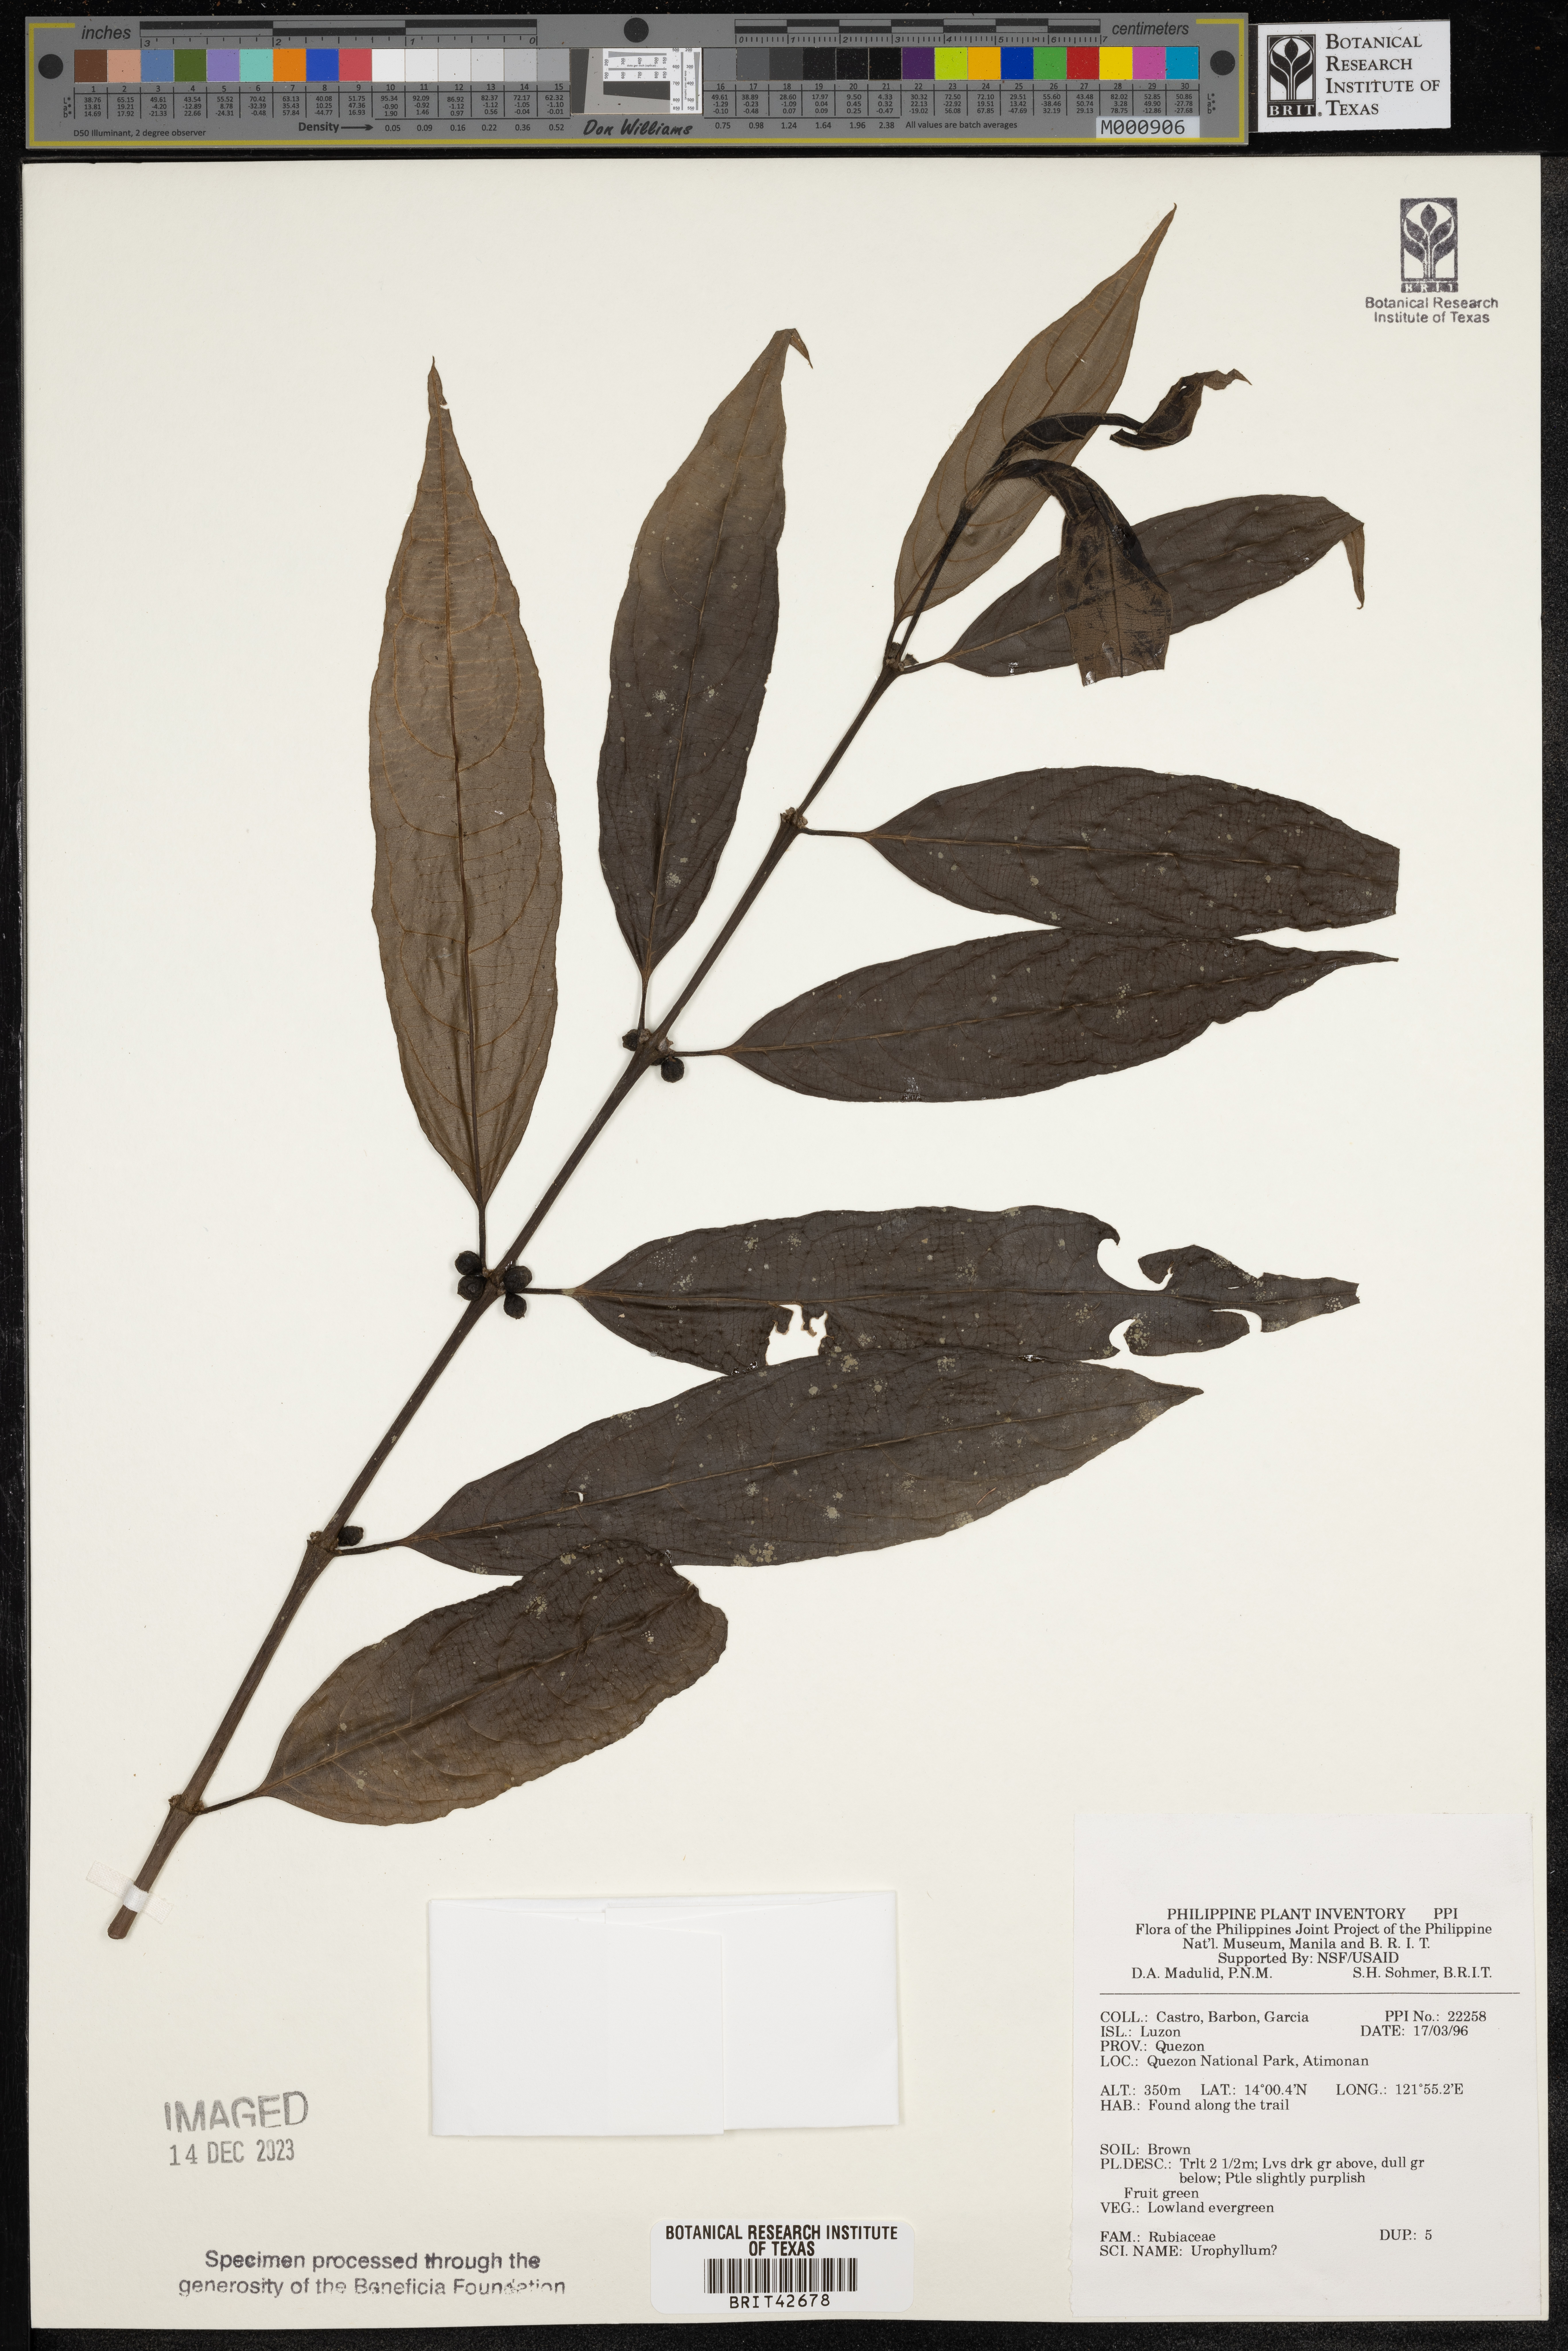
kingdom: Plantae
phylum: Tracheophyta
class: Magnoliopsida
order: Gentianales
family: Rubiaceae
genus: Urophyllum
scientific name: Urophyllum
